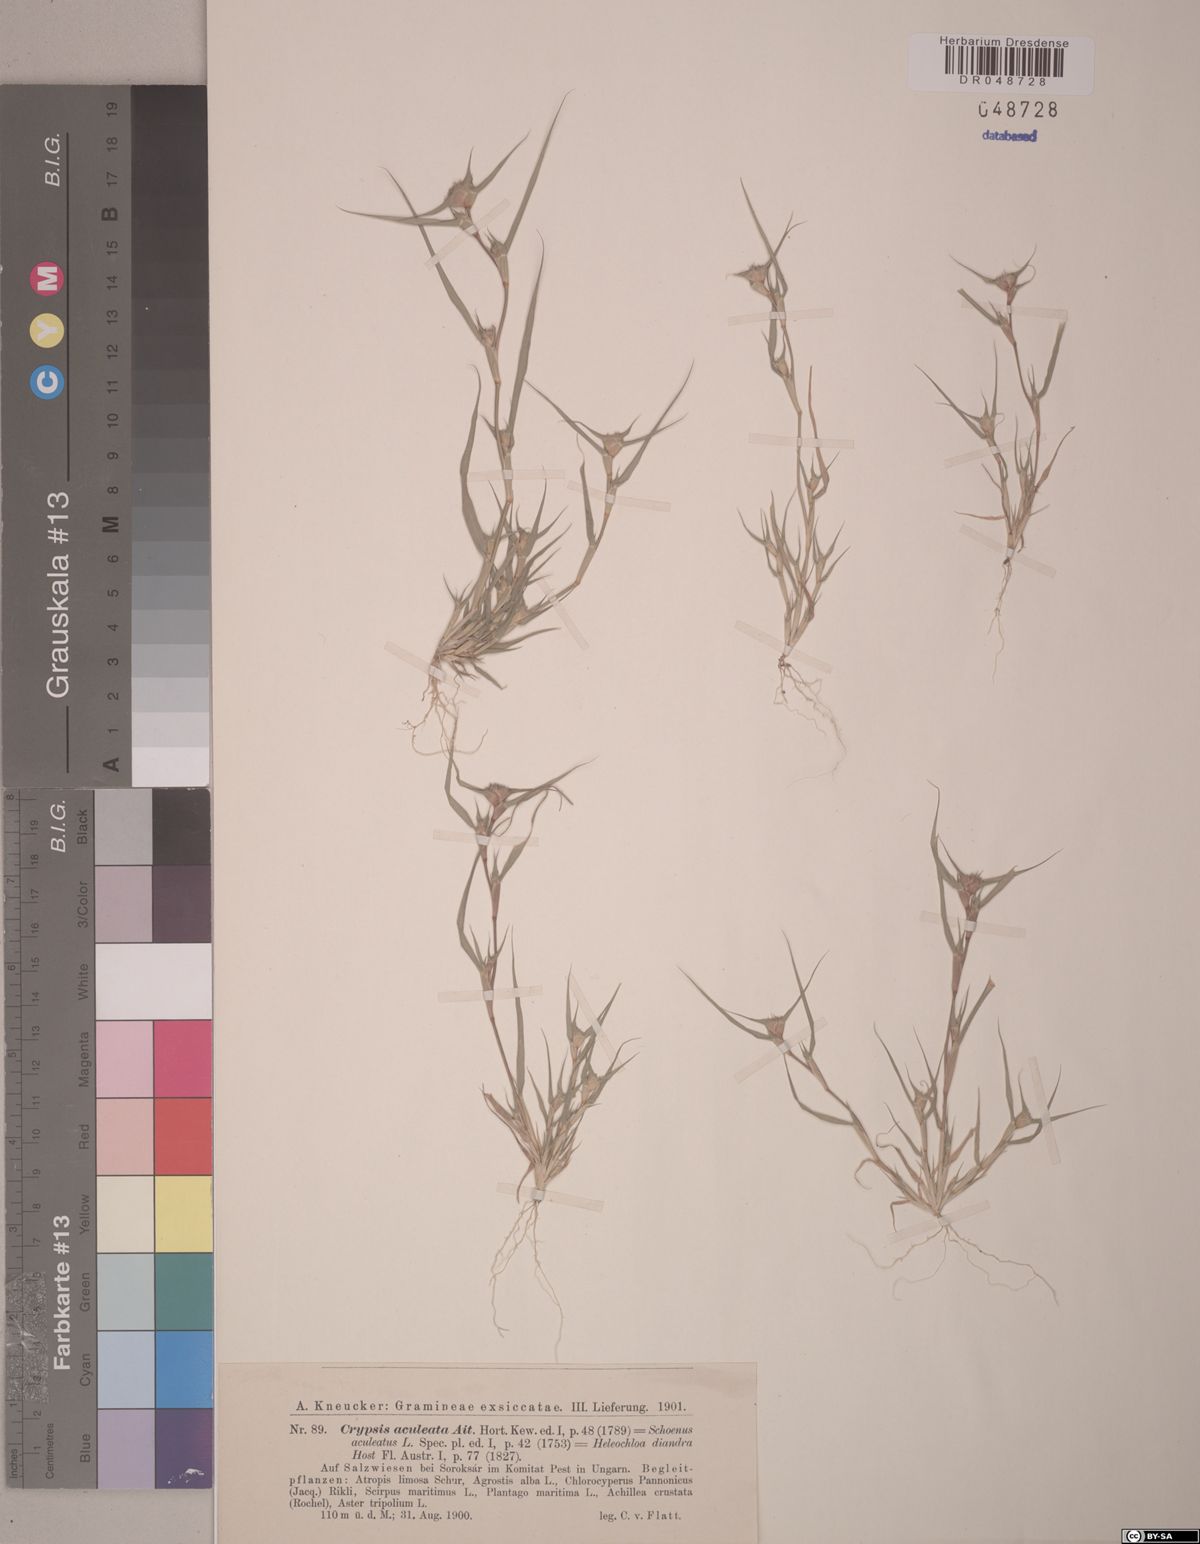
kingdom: Plantae
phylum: Tracheophyta
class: Liliopsida
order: Poales
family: Poaceae
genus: Sporobolus
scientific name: Sporobolus aculeatus
